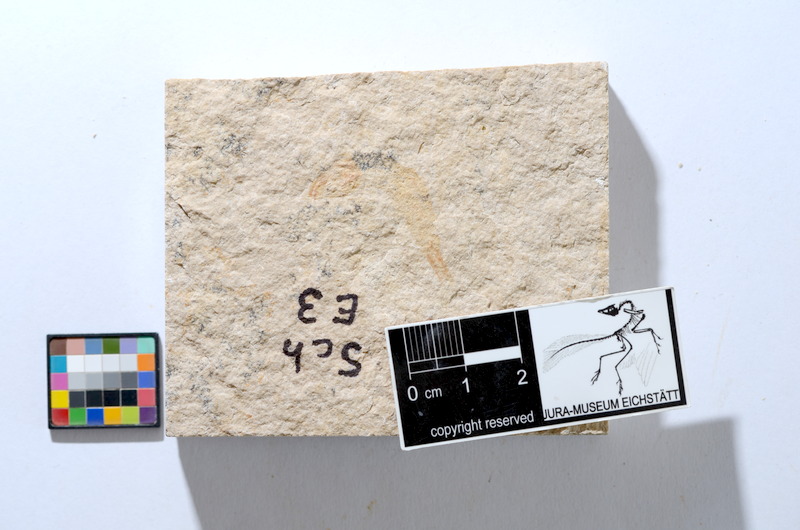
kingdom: Animalia
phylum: Chordata
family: Ascalaboidae
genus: Tharsis
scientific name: Tharsis dubius
